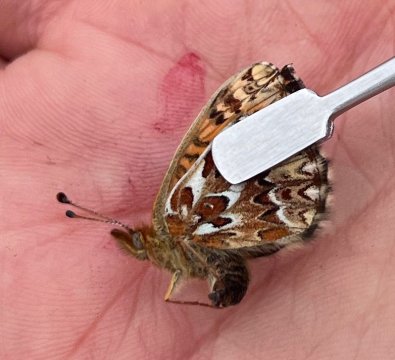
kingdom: Animalia
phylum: Arthropoda
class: Insecta
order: Lepidoptera
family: Nymphalidae
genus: Boloria
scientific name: Boloria freija
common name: Freija Fritillary
